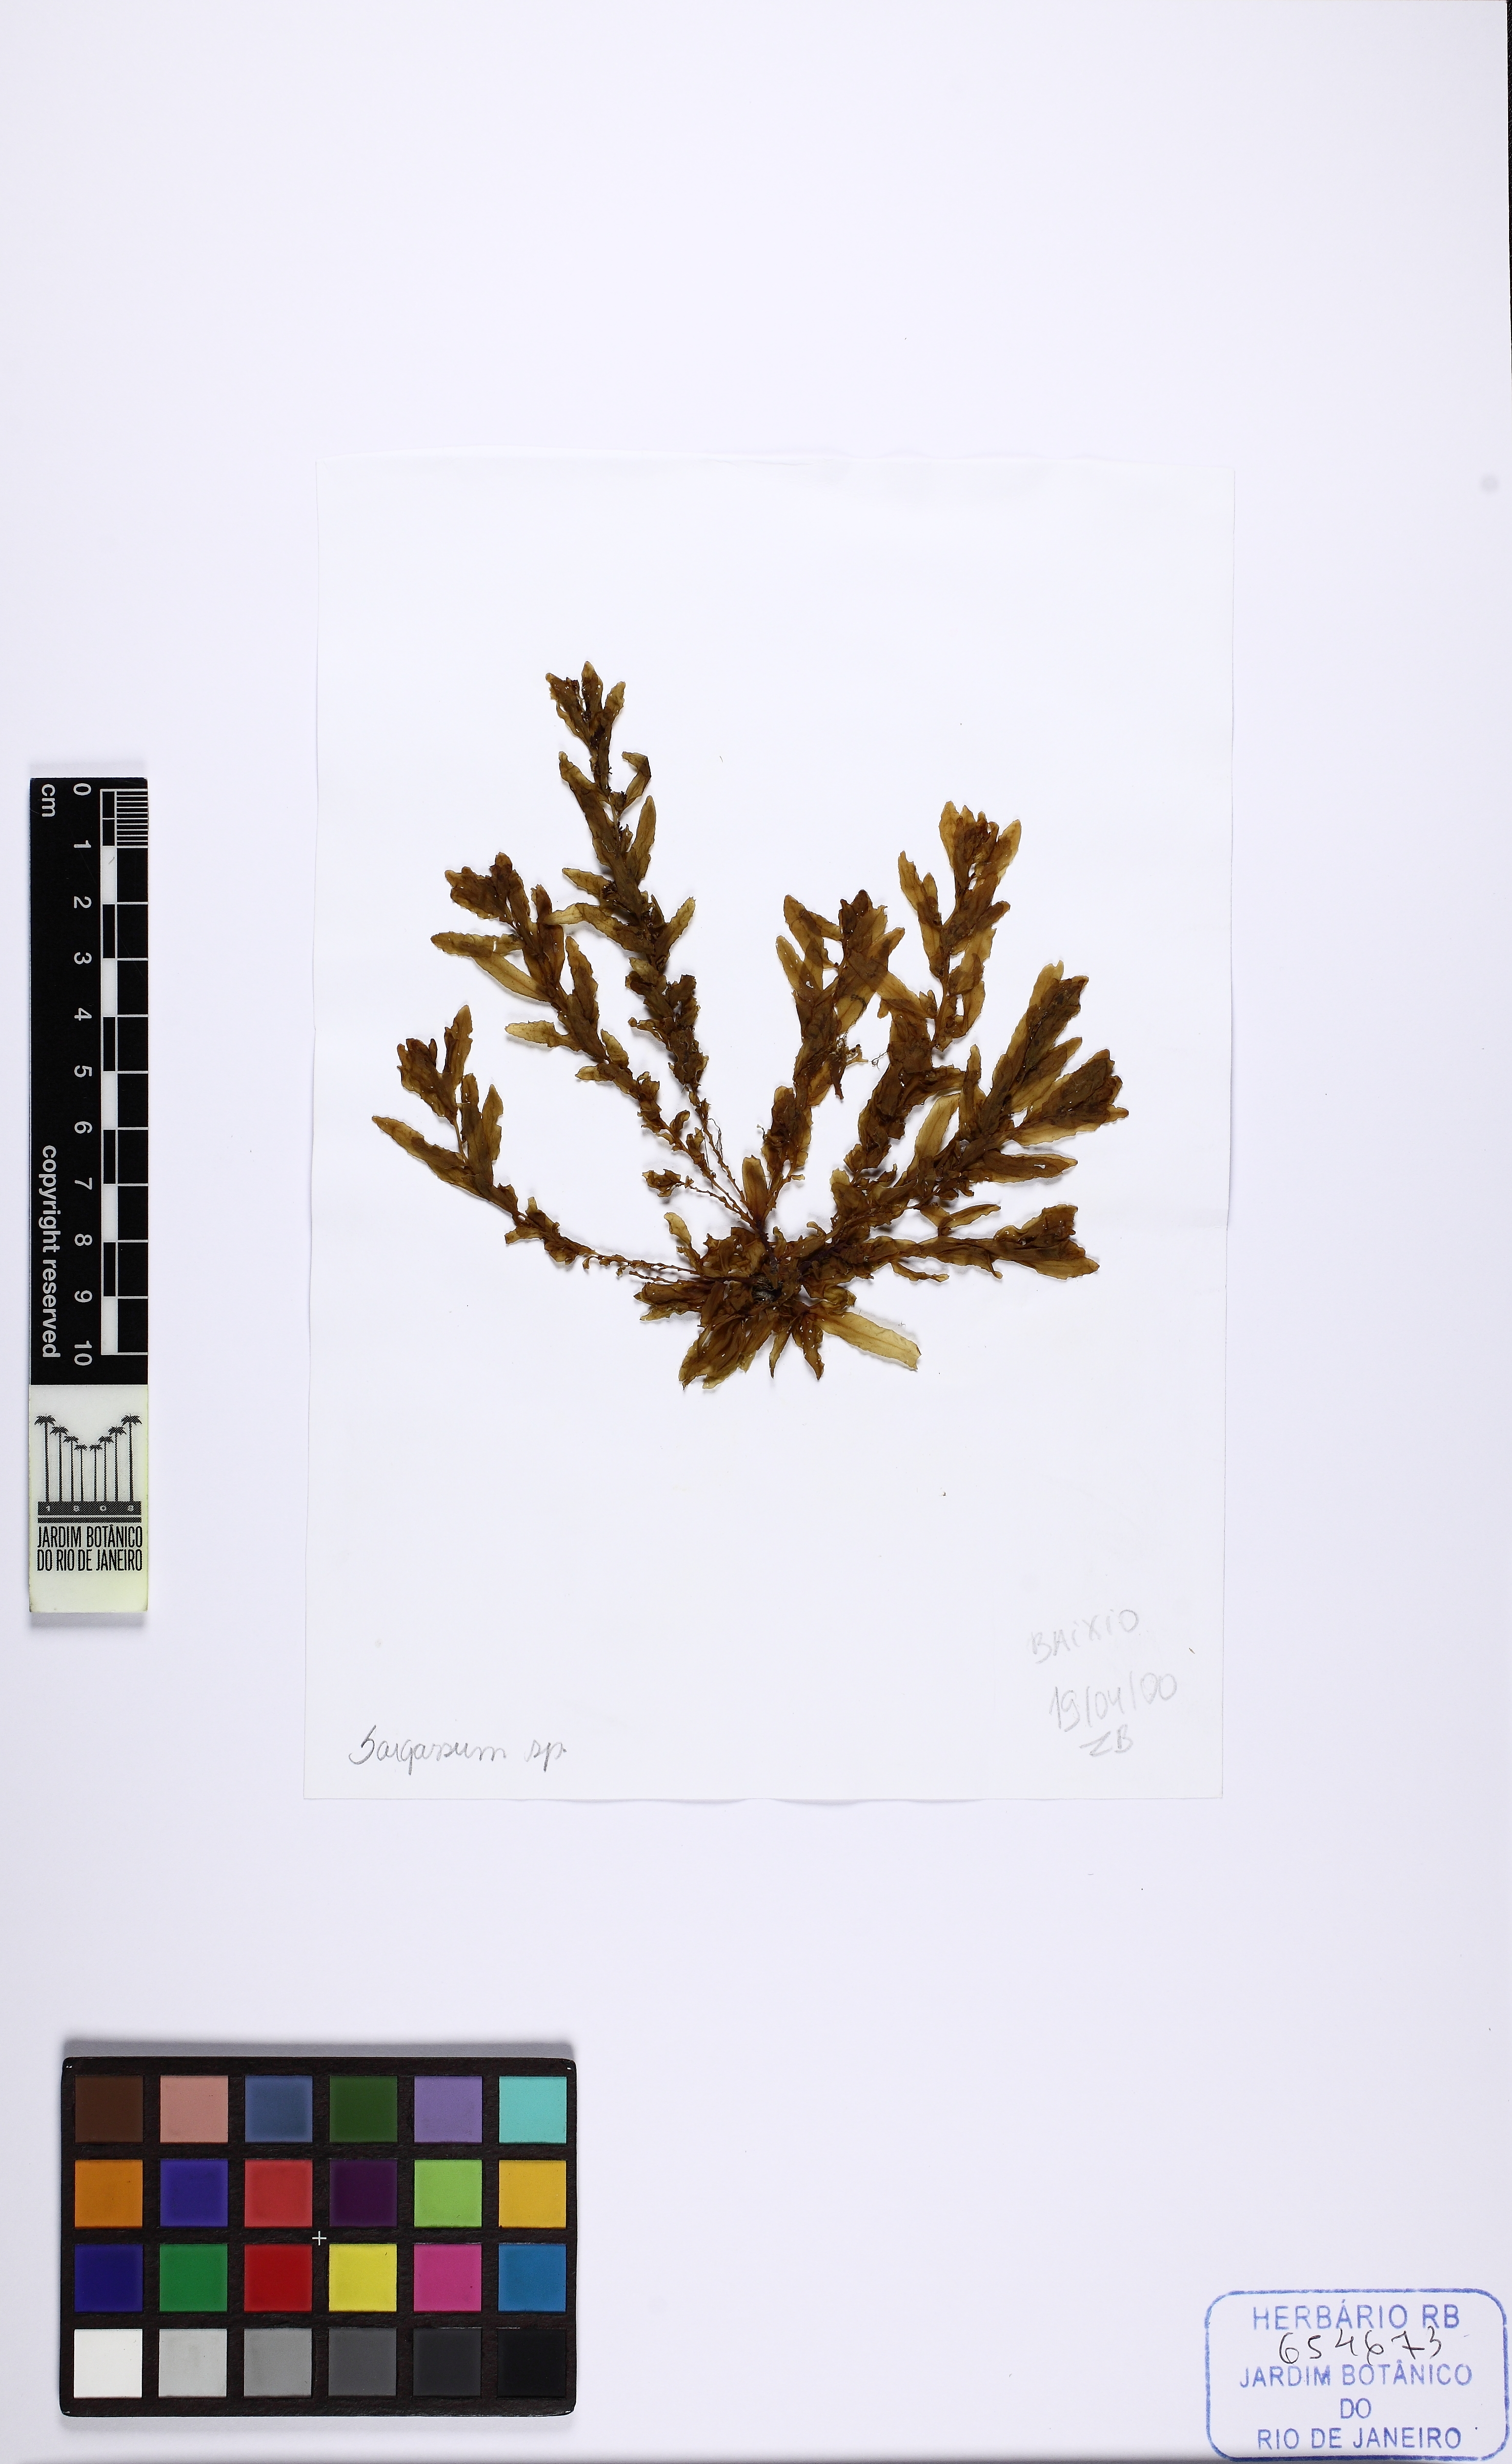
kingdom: Chromista
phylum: Ochrophyta
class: Phaeophyceae
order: Fucales
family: Sargassaceae
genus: Sargassum
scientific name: Sargassum
